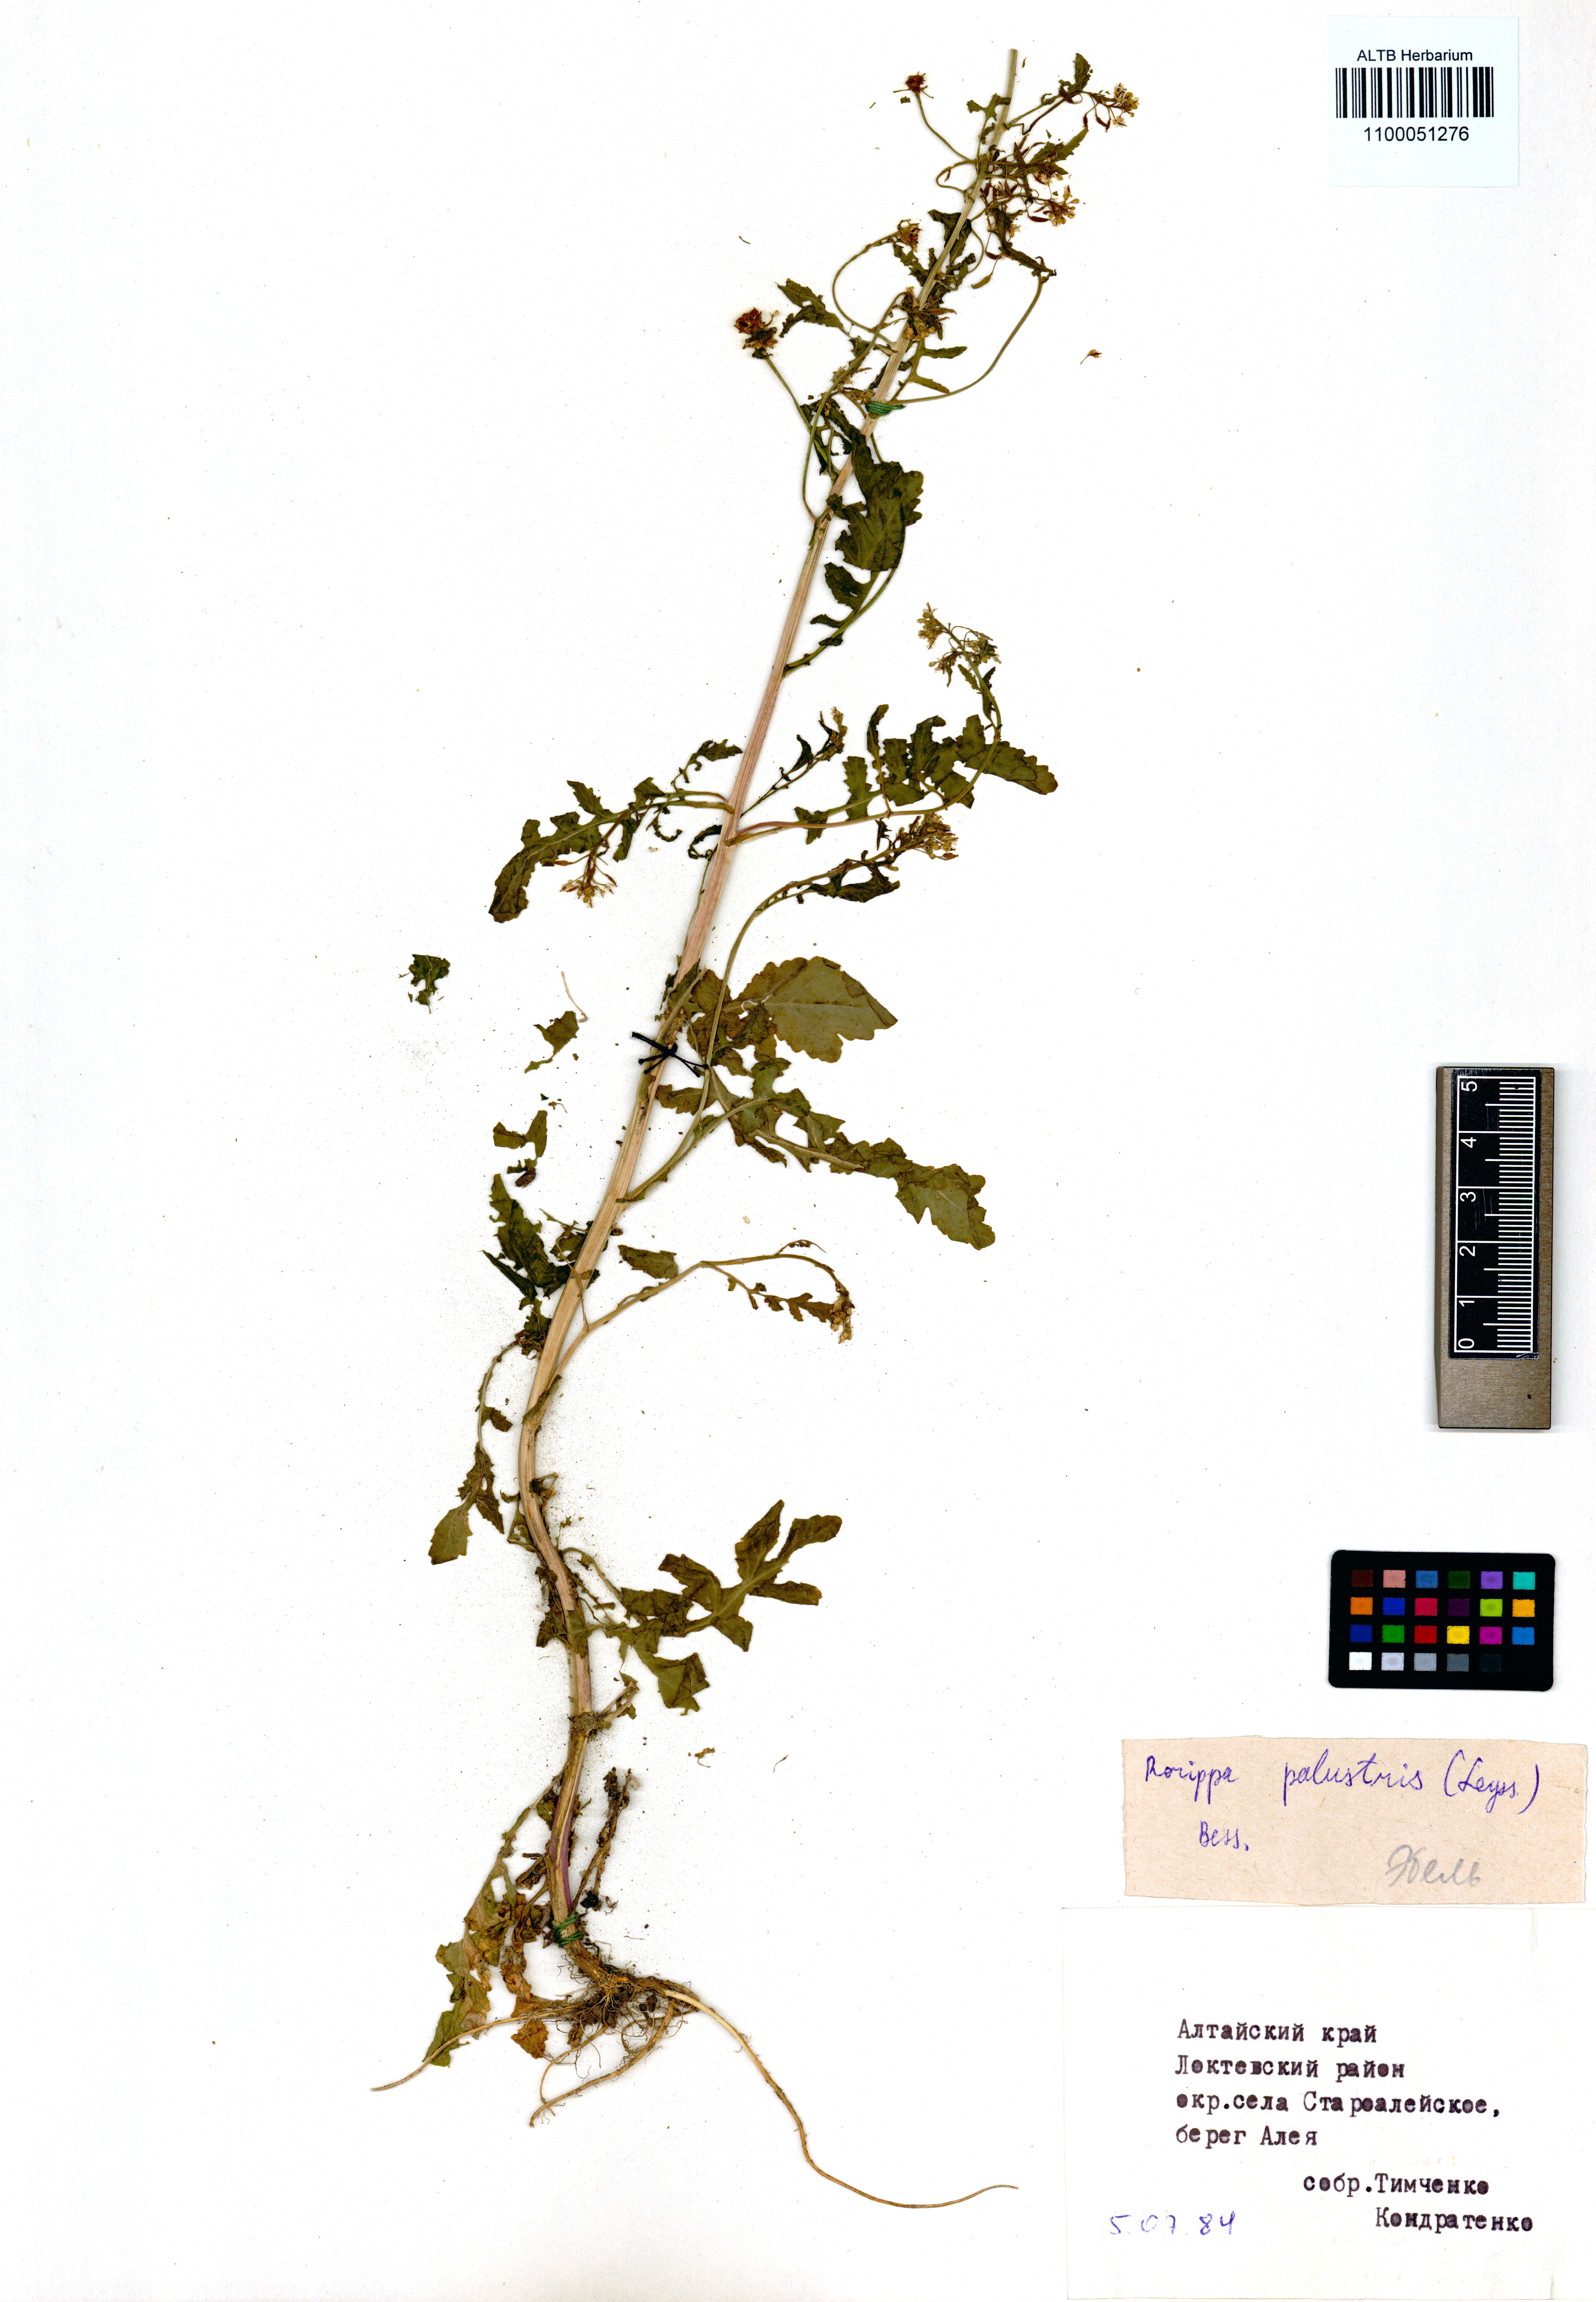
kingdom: Plantae
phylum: Tracheophyta
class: Magnoliopsida
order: Brassicales
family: Brassicaceae
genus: Rorippa
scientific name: Rorippa palustris
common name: Marsh yellow-cress
